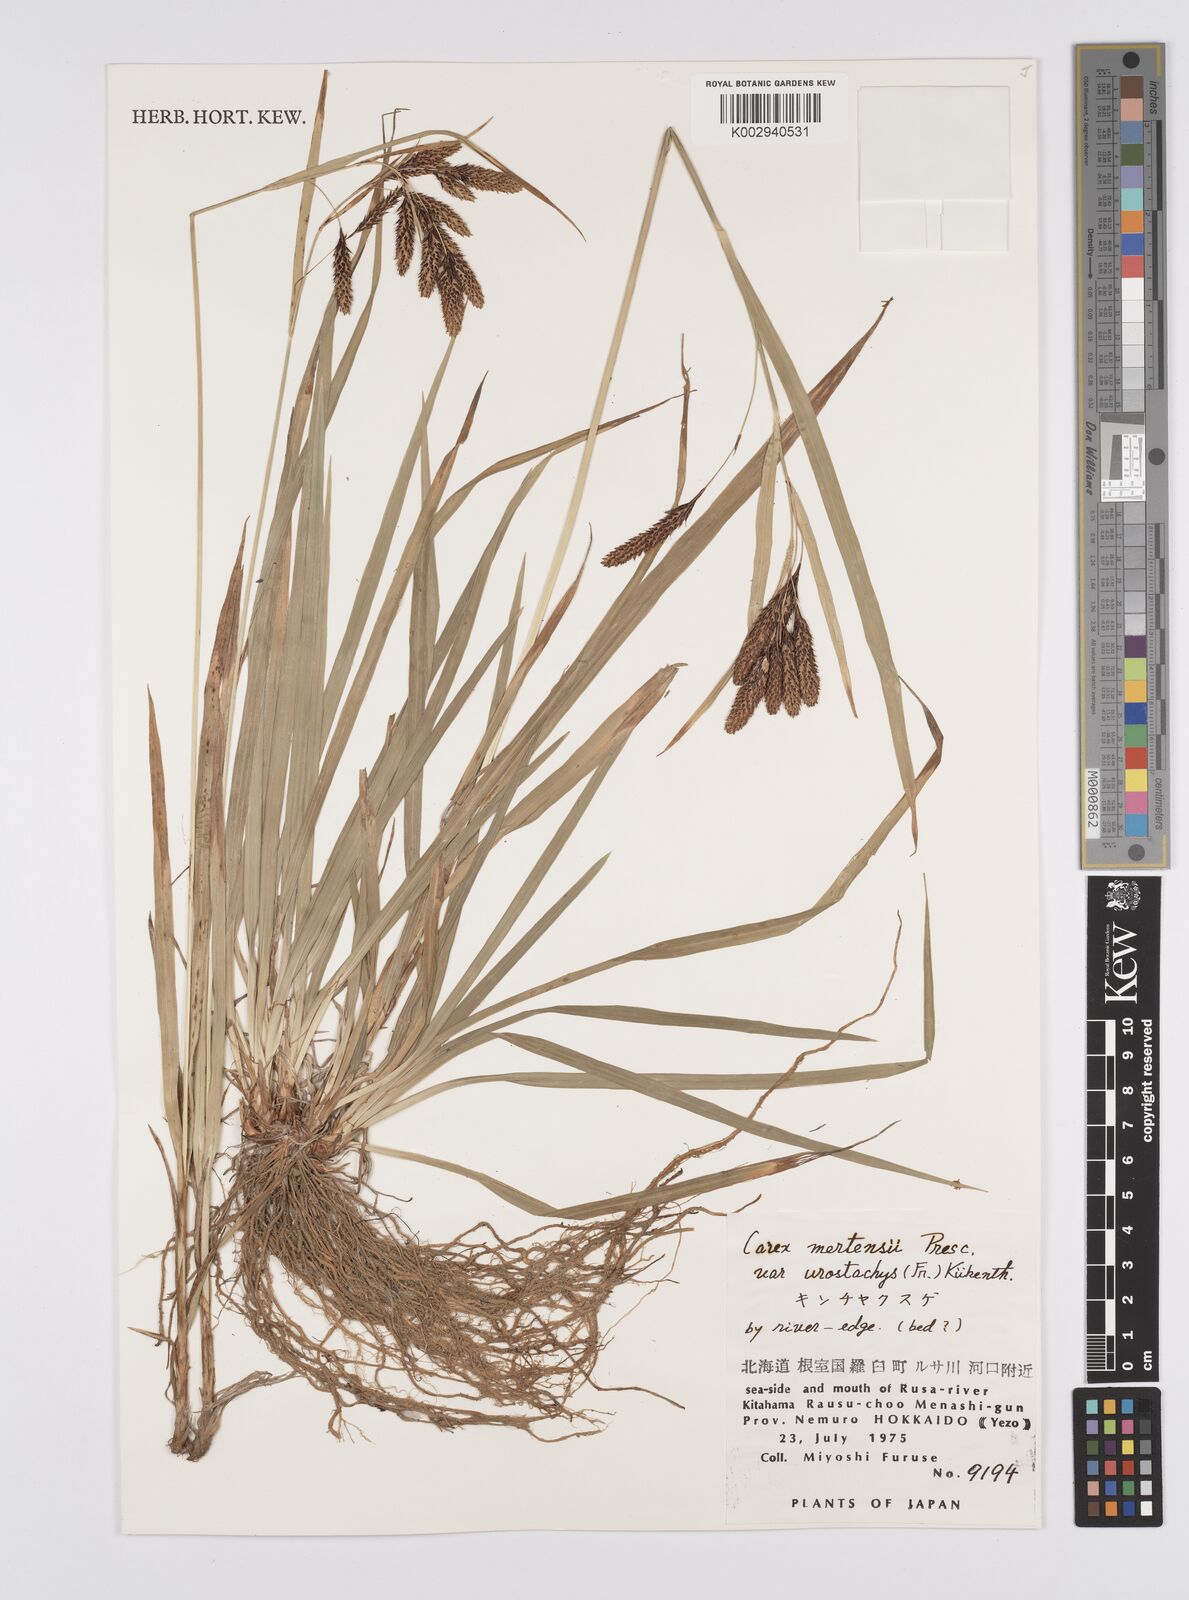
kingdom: Plantae
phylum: Tracheophyta
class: Liliopsida
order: Poales
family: Cyperaceae
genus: Carex
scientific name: Carex mertensii
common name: Mertens' sedge
